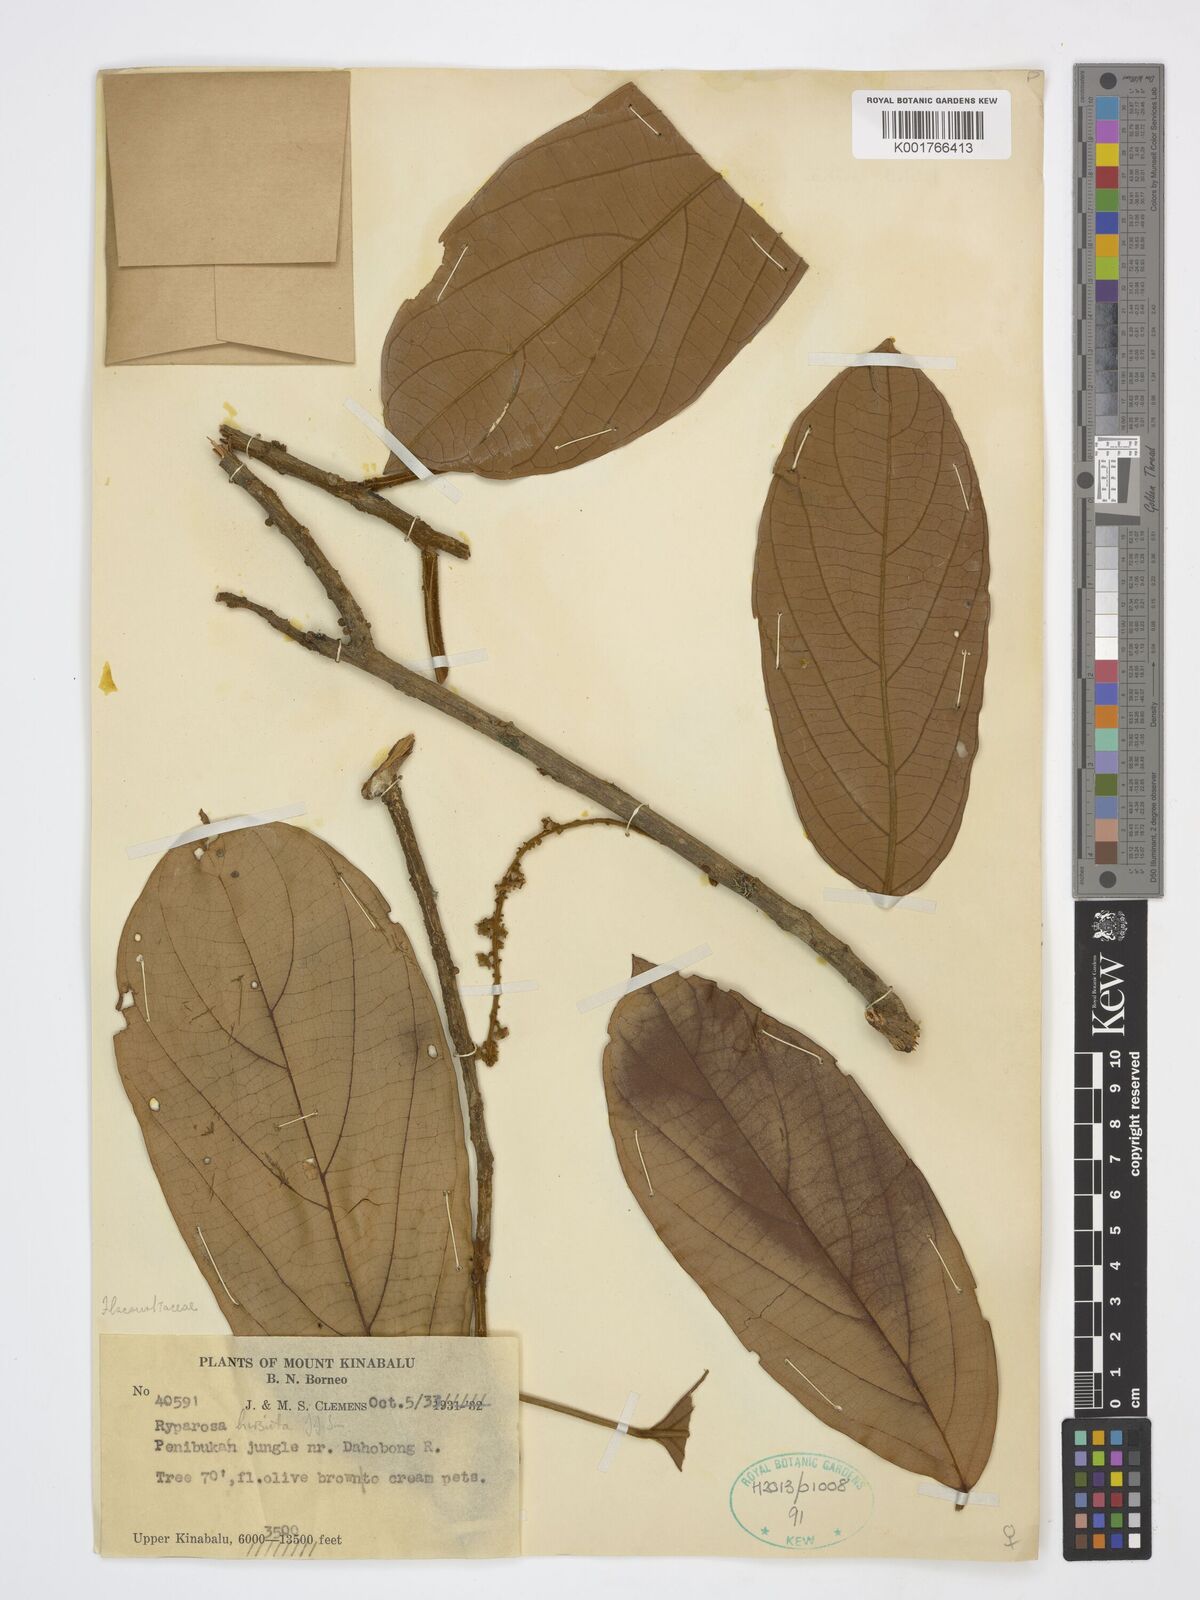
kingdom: Plantae
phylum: Tracheophyta
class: Magnoliopsida
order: Malpighiales
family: Achariaceae
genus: Ryparosa
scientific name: Ryparosa hirsuta
